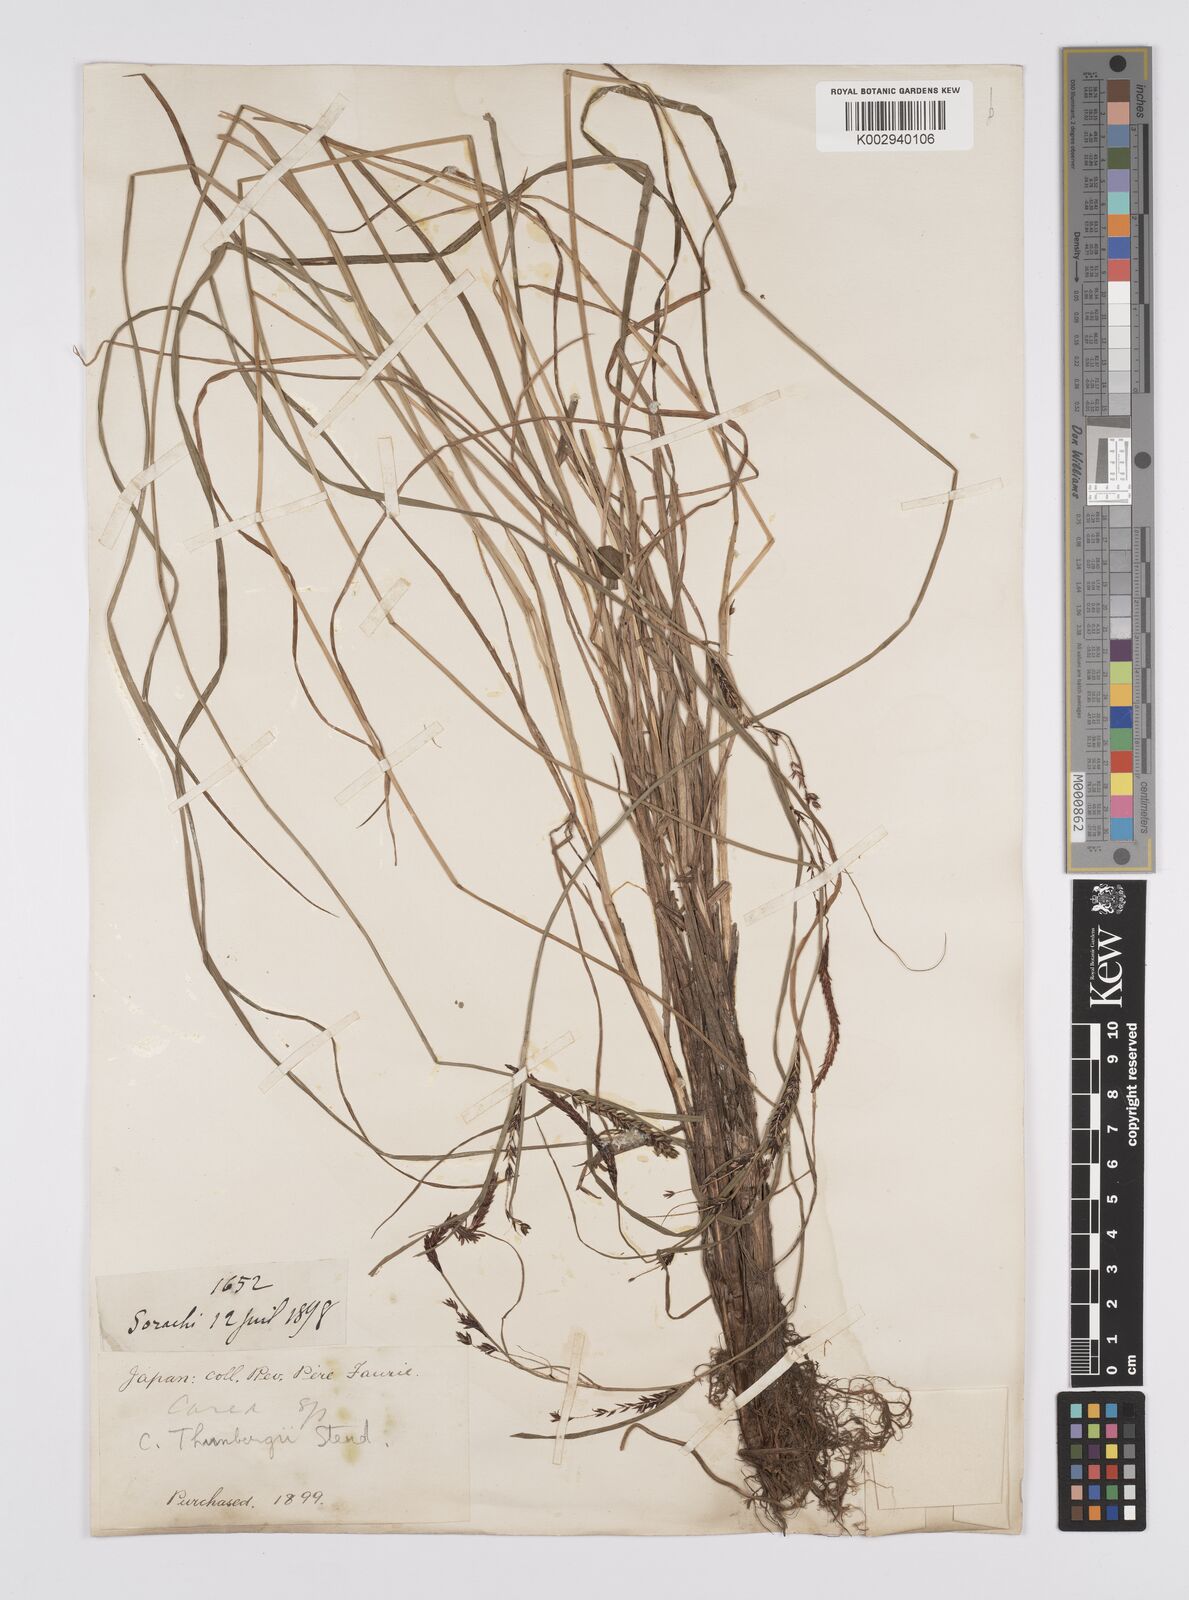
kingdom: Plantae
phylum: Tracheophyta
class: Liliopsida
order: Poales
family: Cyperaceae
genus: Carex
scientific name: Carex thunbergii
